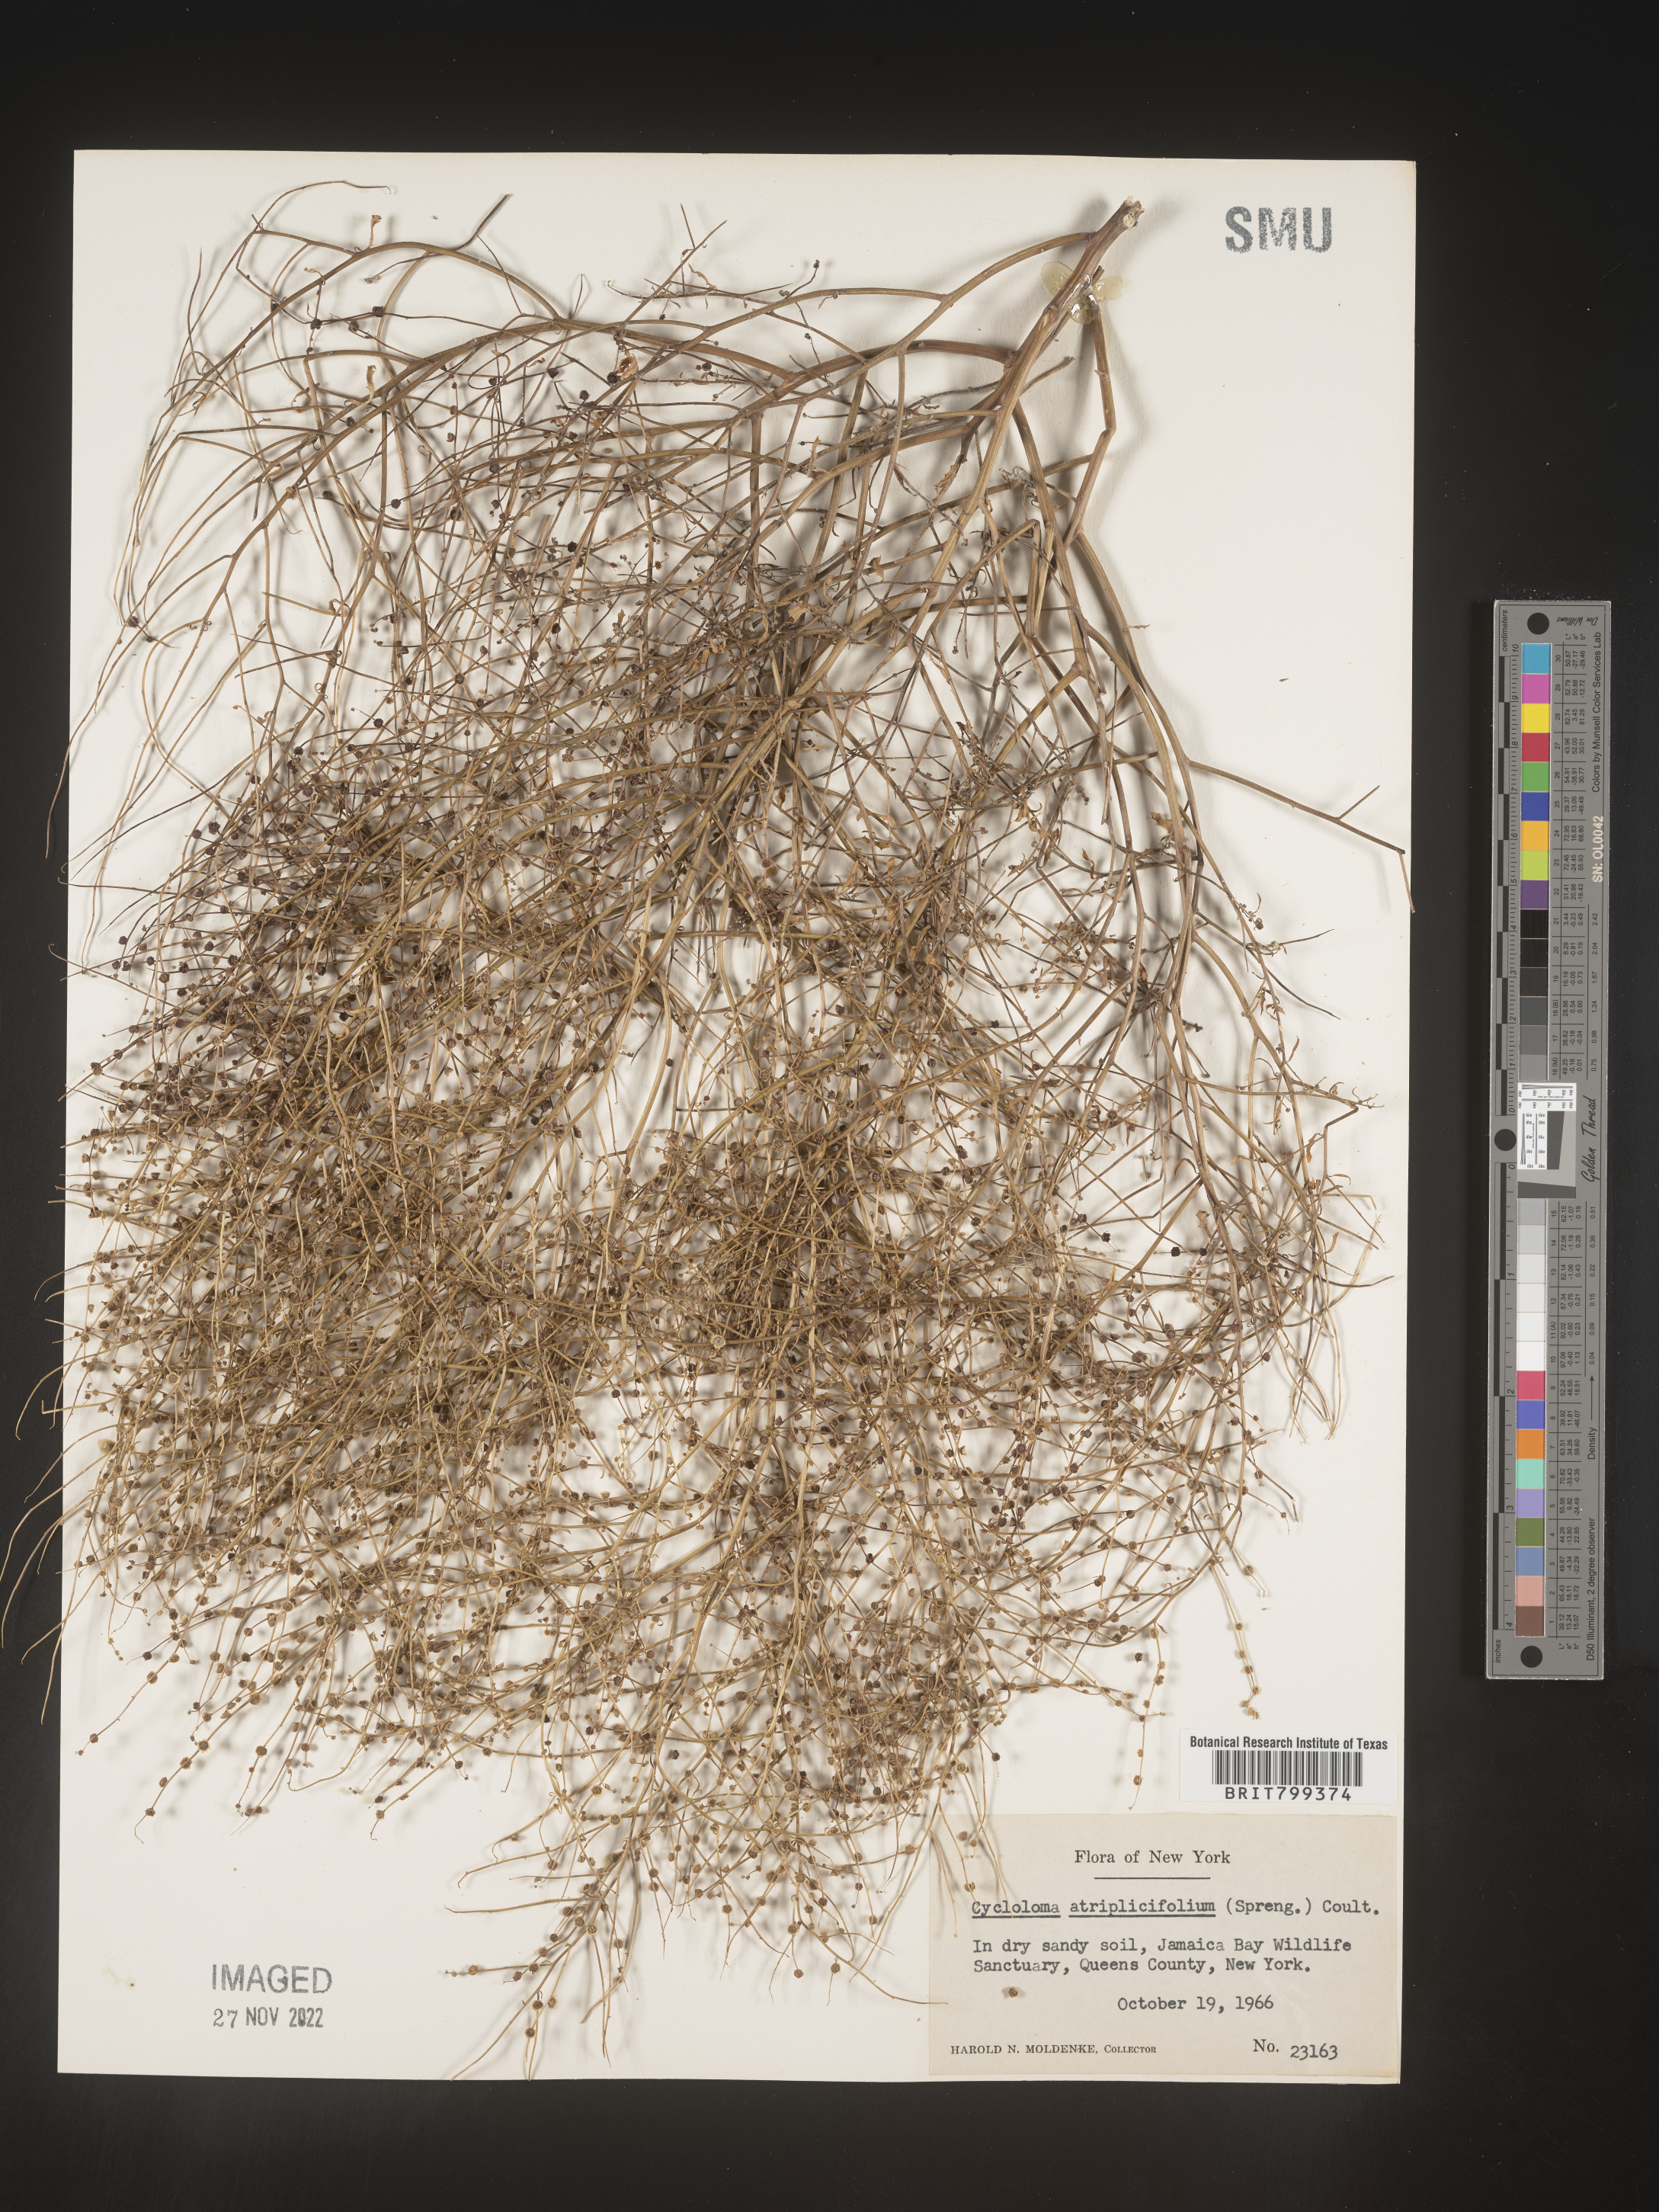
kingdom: Plantae
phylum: Tracheophyta
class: Magnoliopsida
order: Caryophyllales
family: Amaranthaceae
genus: Dysphania
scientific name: Dysphania atriplicifolia
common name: Plains tumbleweed
